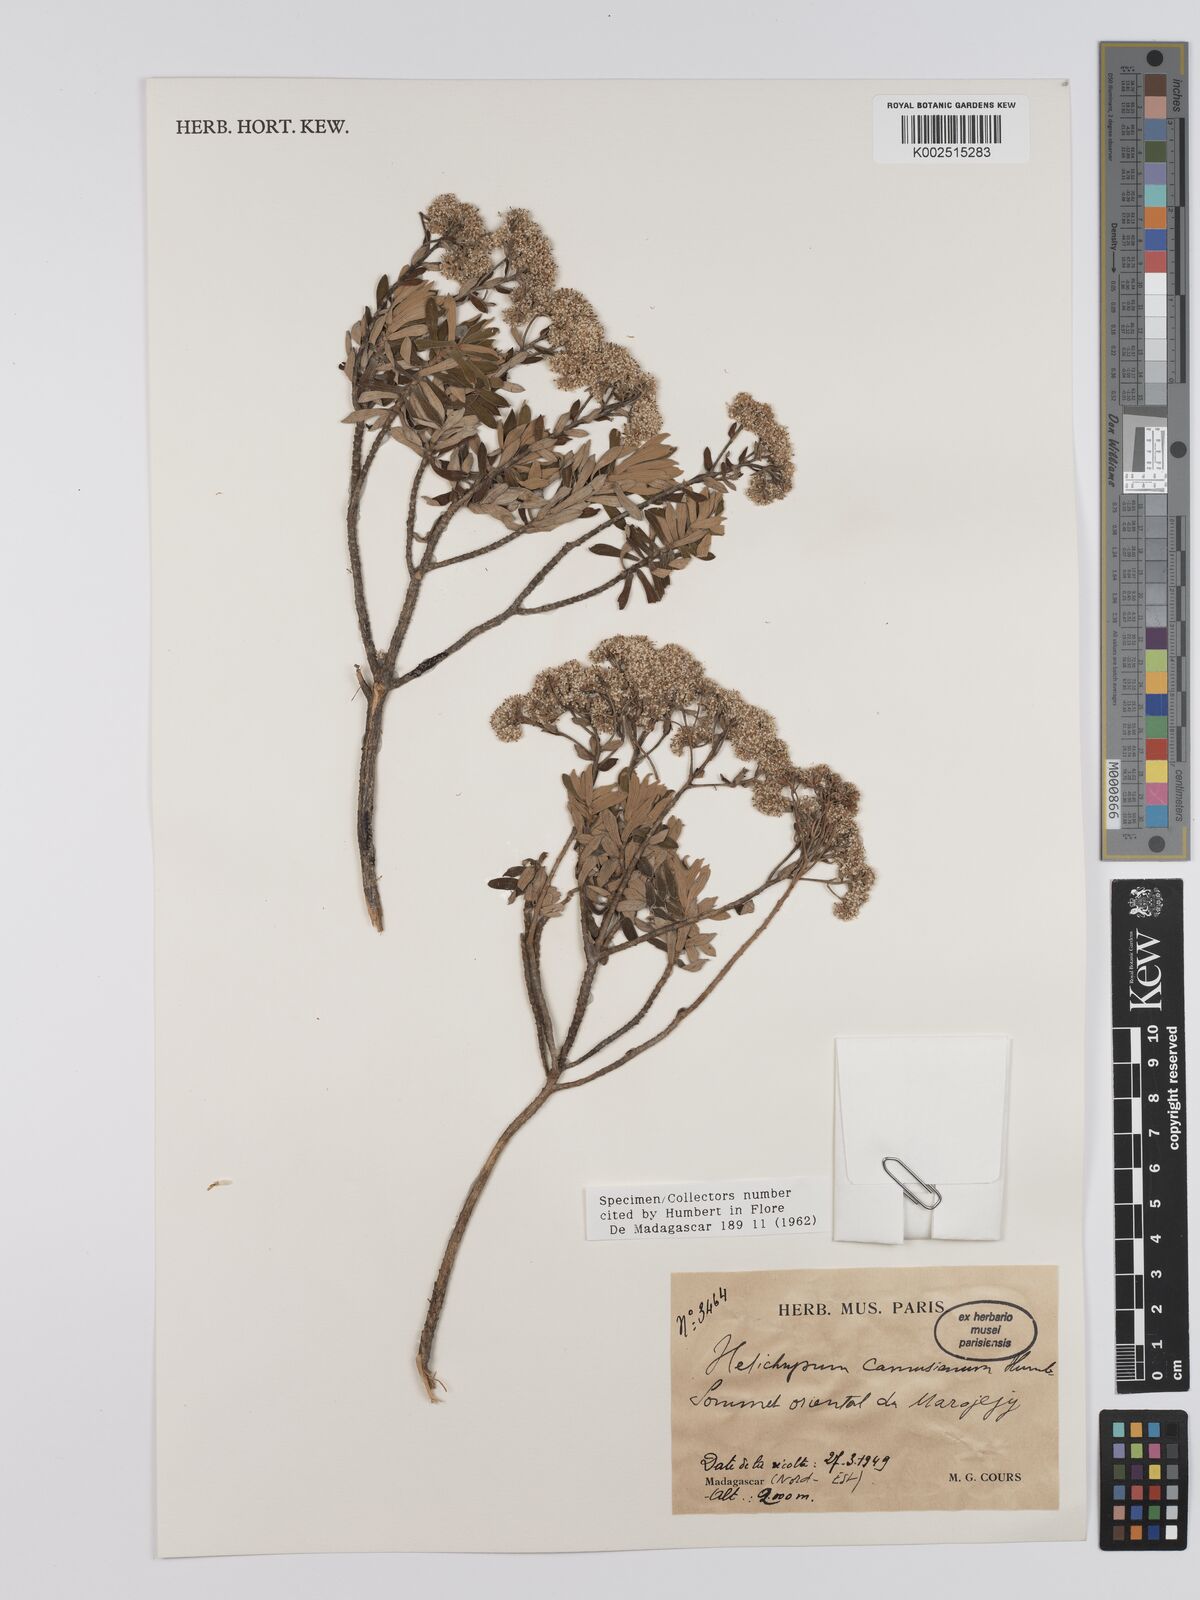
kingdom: Plantae
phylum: Tracheophyta
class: Magnoliopsida
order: Asterales
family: Asteraceae
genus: Helichrysum
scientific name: Helichrysum camusianum
